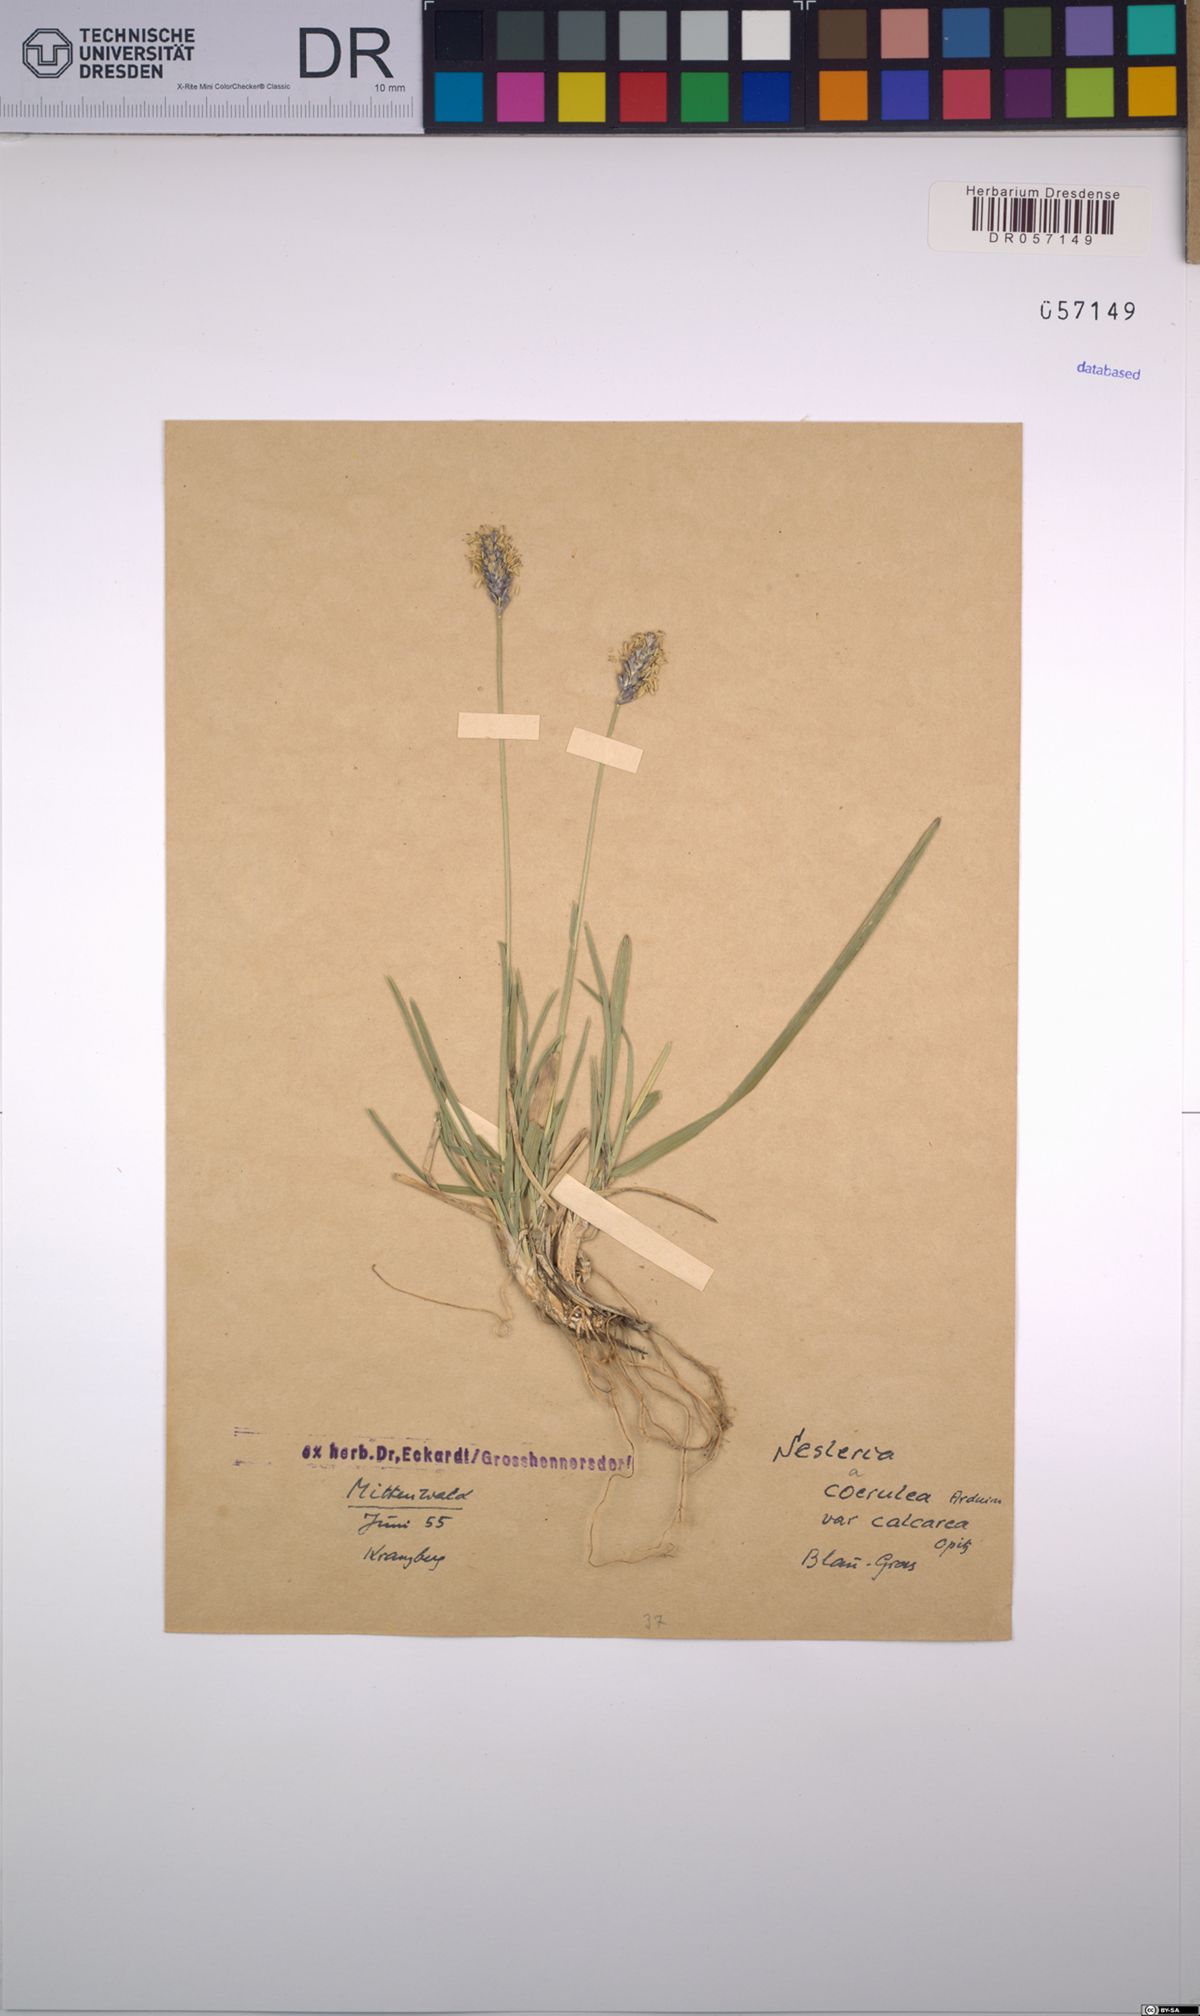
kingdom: Plantae
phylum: Tracheophyta
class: Liliopsida
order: Poales
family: Poaceae
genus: Sesleria
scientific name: Sesleria caerulea
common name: Blue moor-grass
